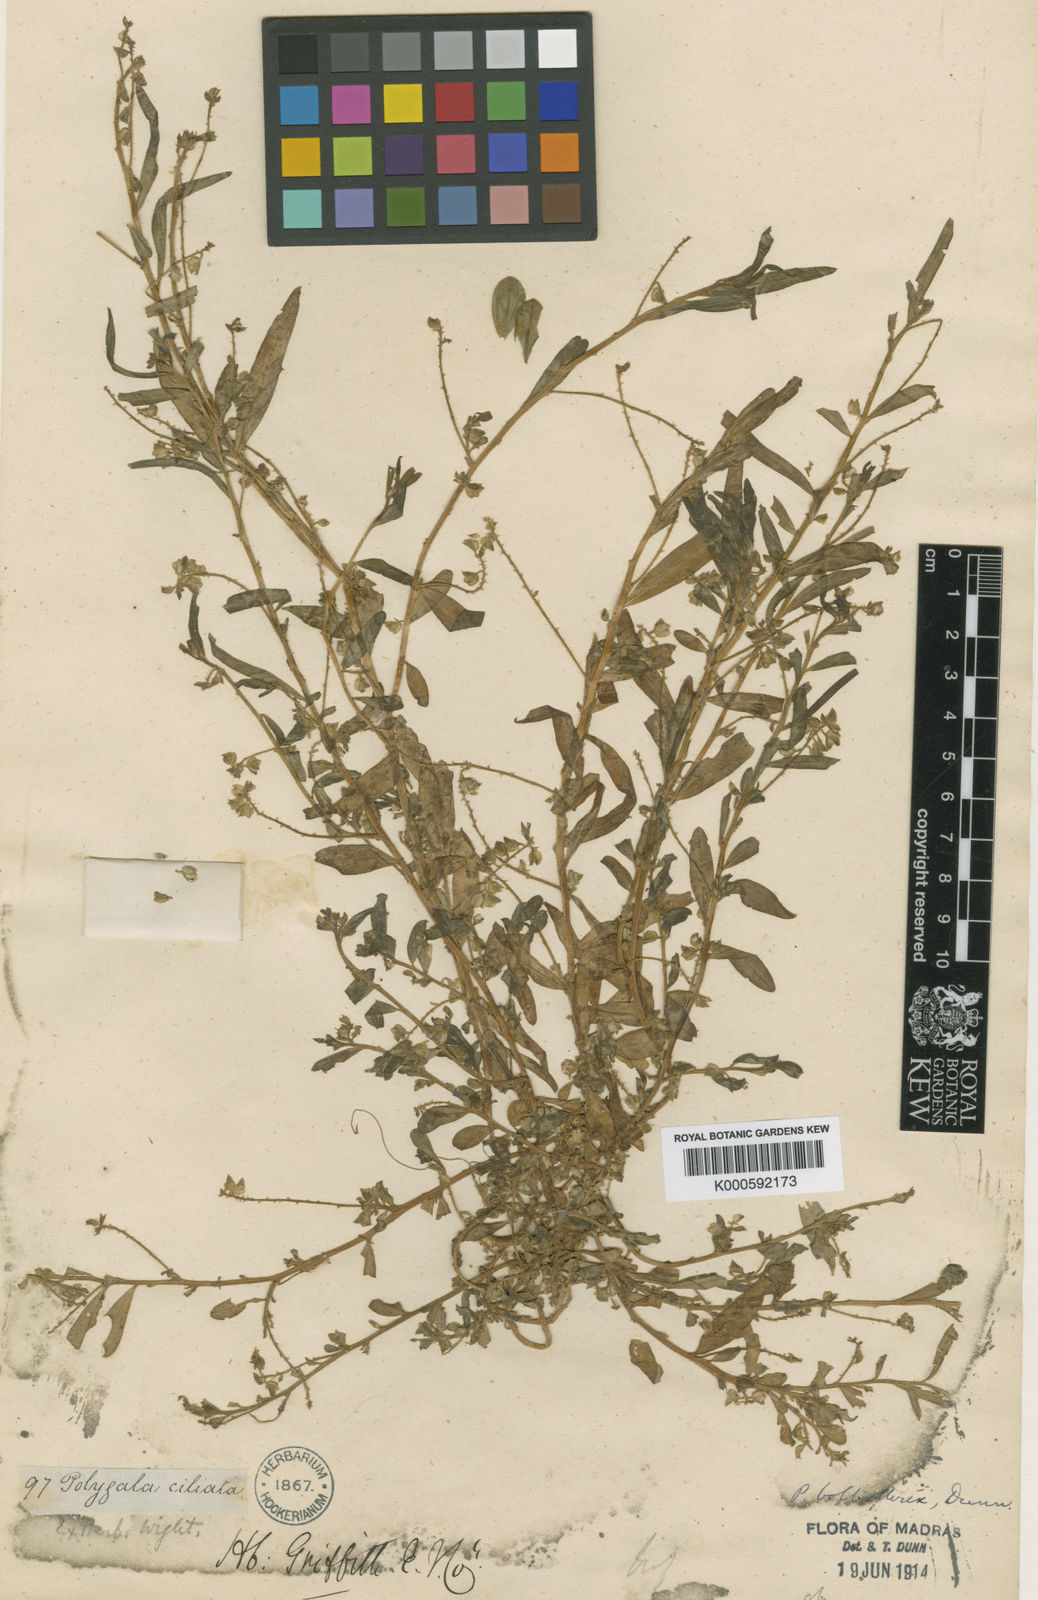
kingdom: Plantae
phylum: Tracheophyta
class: Magnoliopsida
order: Fabales
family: Polygalaceae
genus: Polygala
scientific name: Polygala bolbothrix
